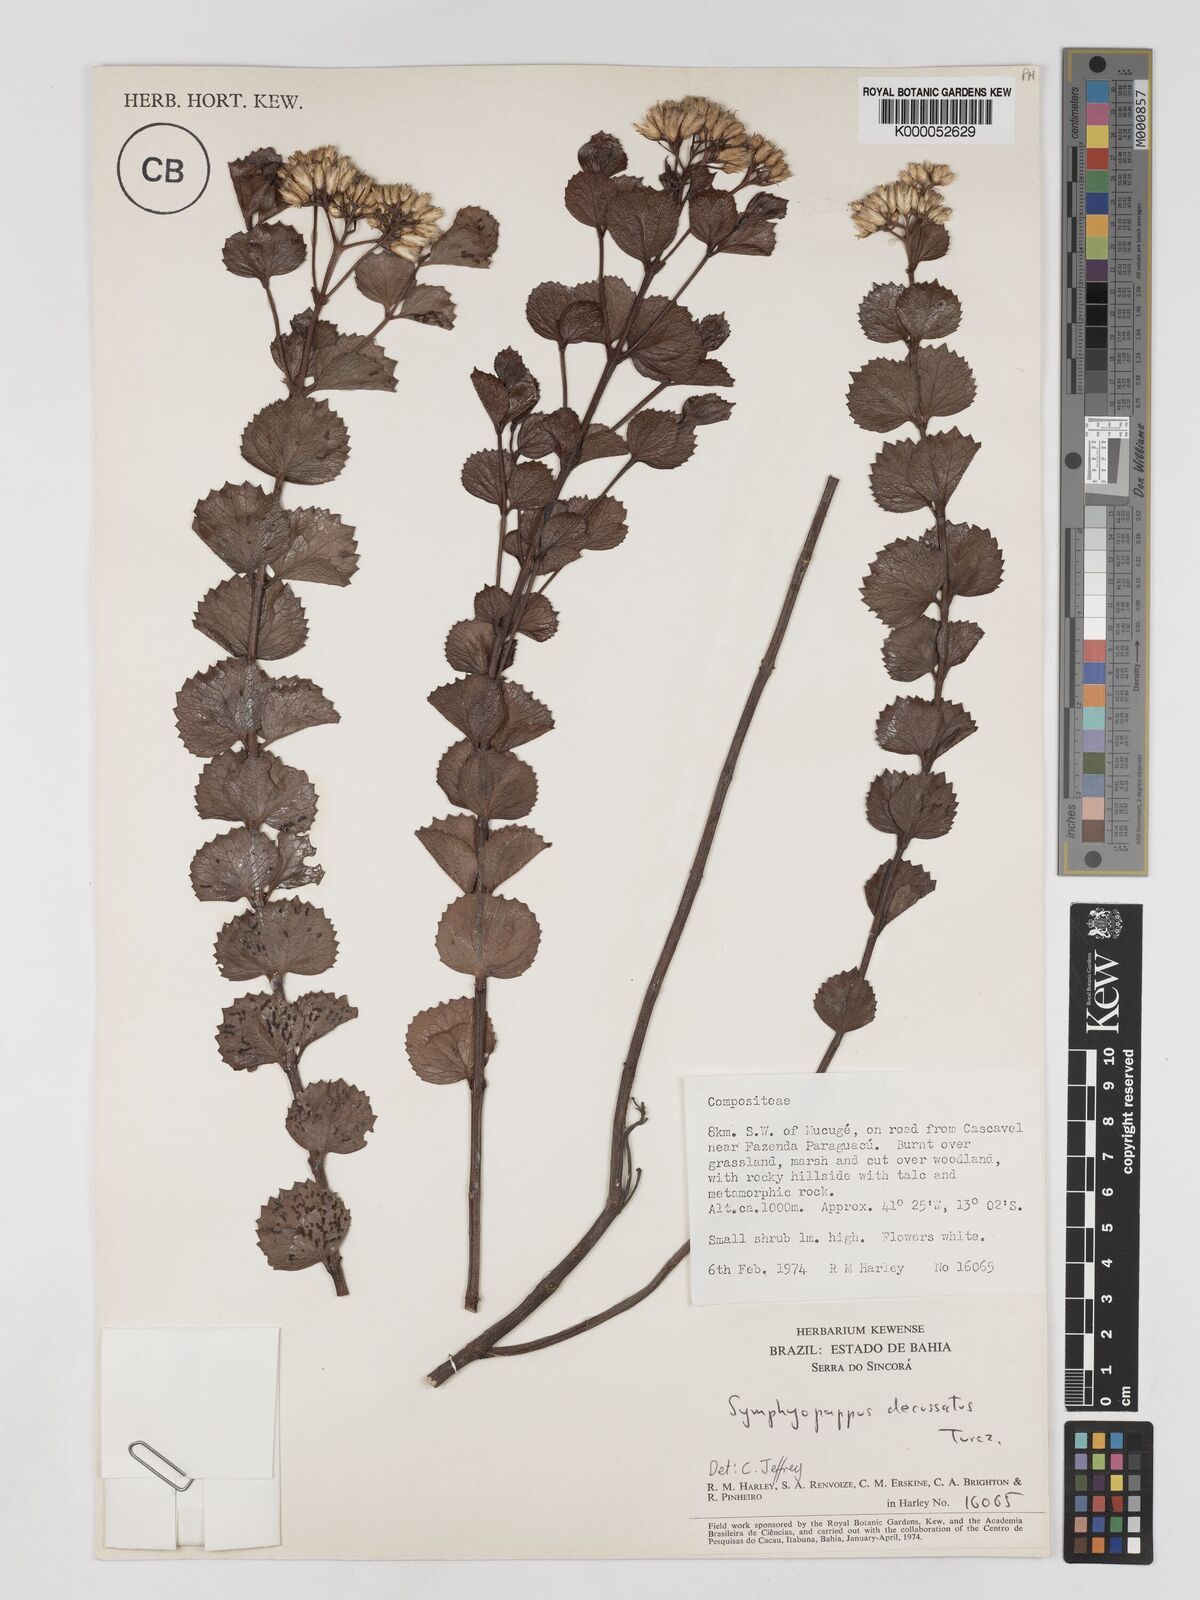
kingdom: Plantae
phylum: Tracheophyta
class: Magnoliopsida
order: Asterales
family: Asteraceae
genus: Symphyopappus
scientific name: Symphyopappus decussatus
